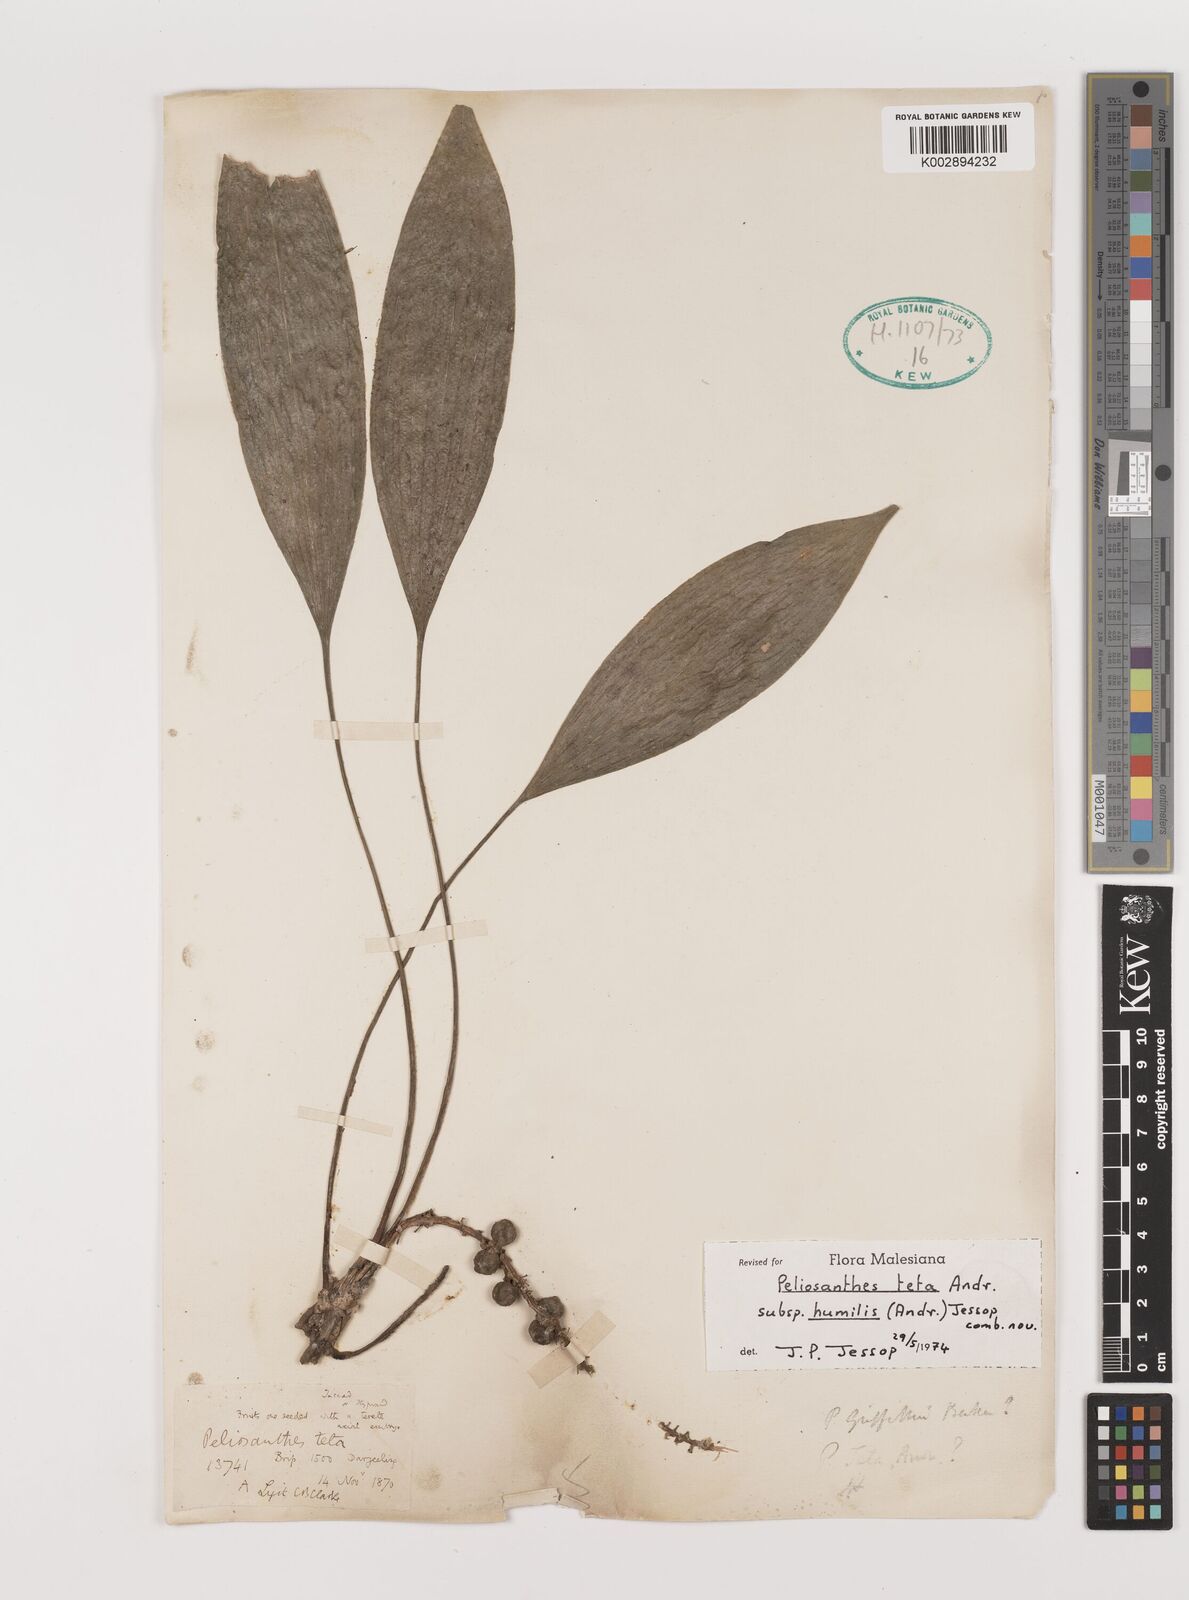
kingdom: Plantae
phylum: Tracheophyta
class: Liliopsida
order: Asparagales
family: Asparagaceae
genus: Peliosanthes
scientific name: Peliosanthes teta
